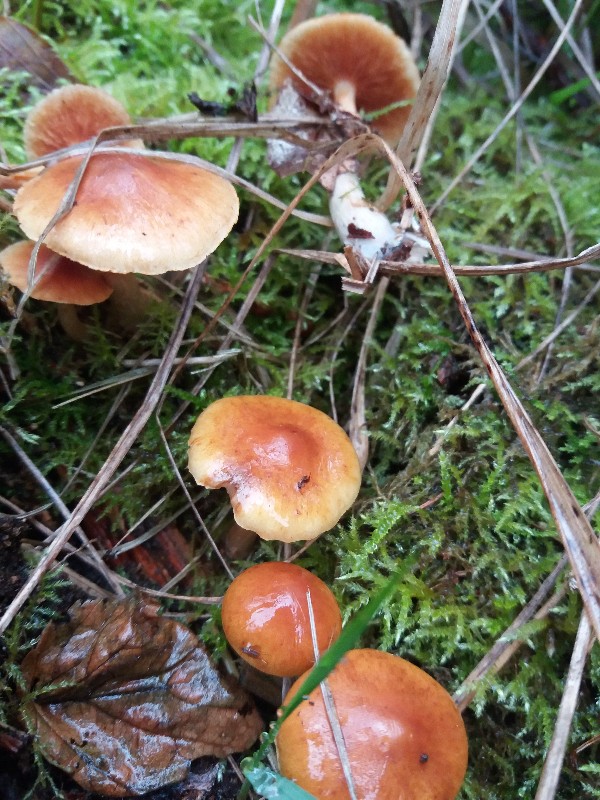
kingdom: Fungi
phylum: Basidiomycota
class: Agaricomycetes
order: Agaricales
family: Hymenogastraceae
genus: Gymnopilus
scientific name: Gymnopilus penetrans
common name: plettet flammehat
